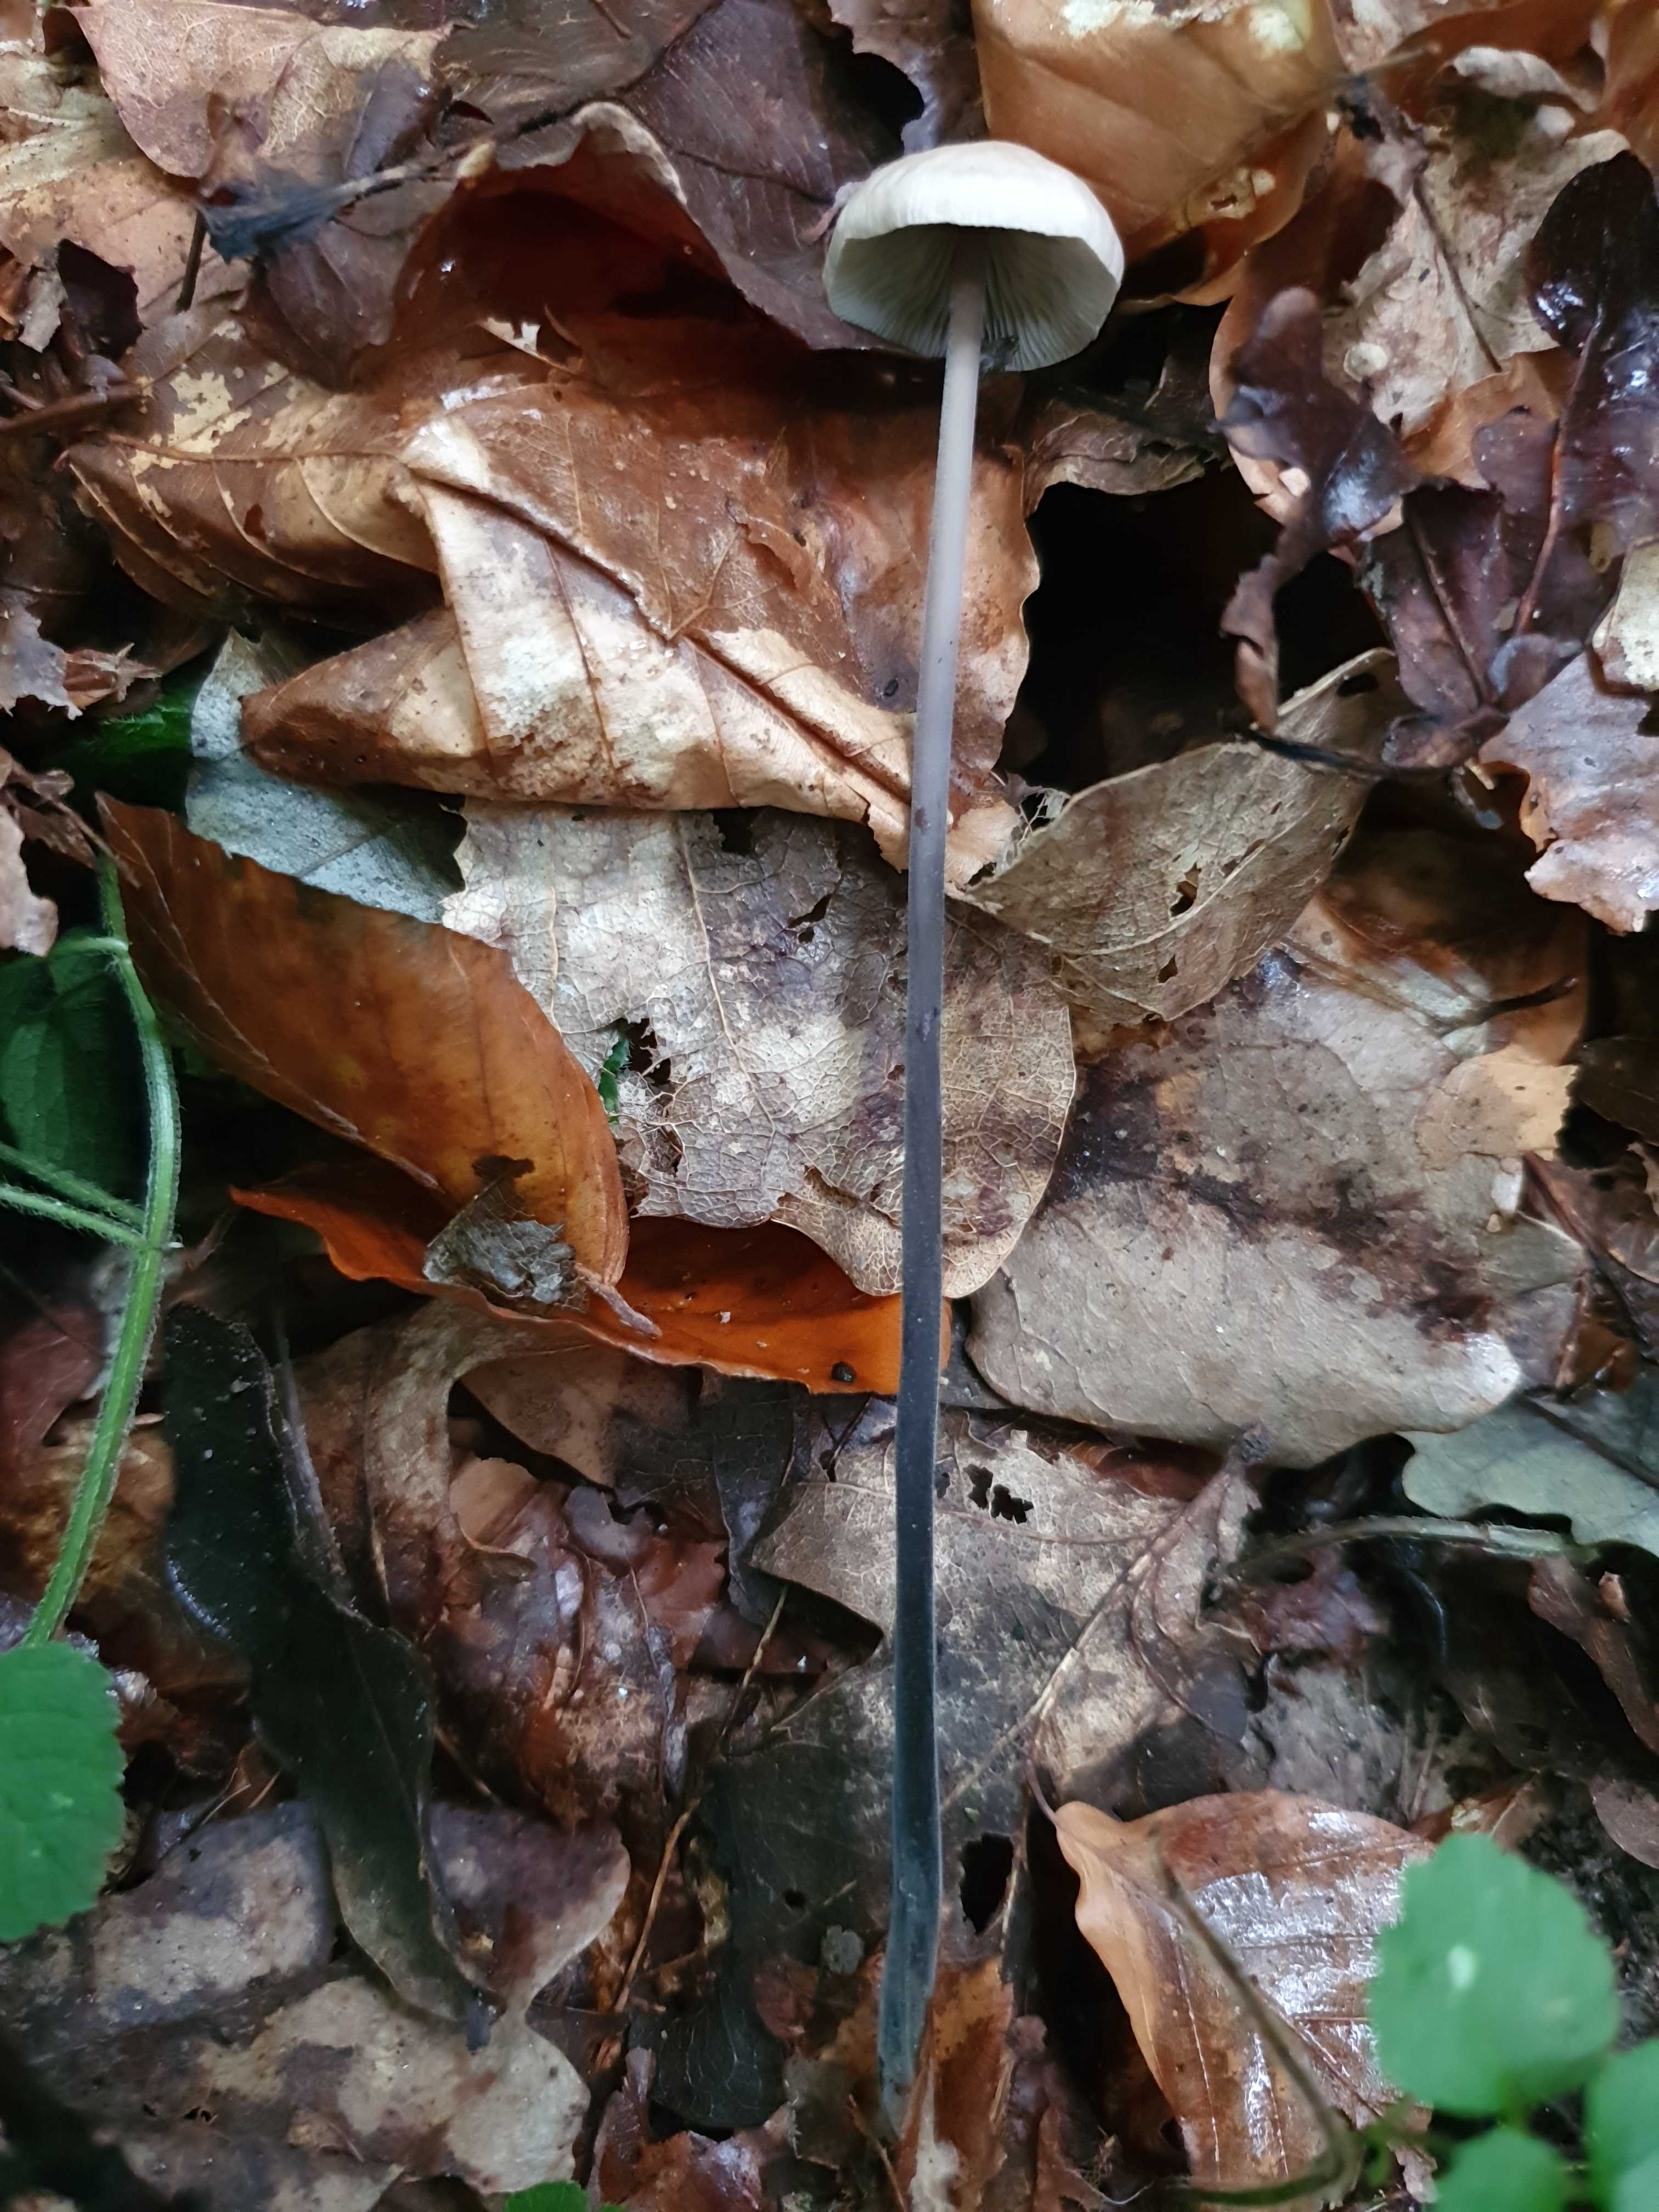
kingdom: Fungi
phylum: Basidiomycota
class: Agaricomycetes
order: Agaricales
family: Omphalotaceae
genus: Mycetinis
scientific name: Mycetinis alliaceus
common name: stor løghat
